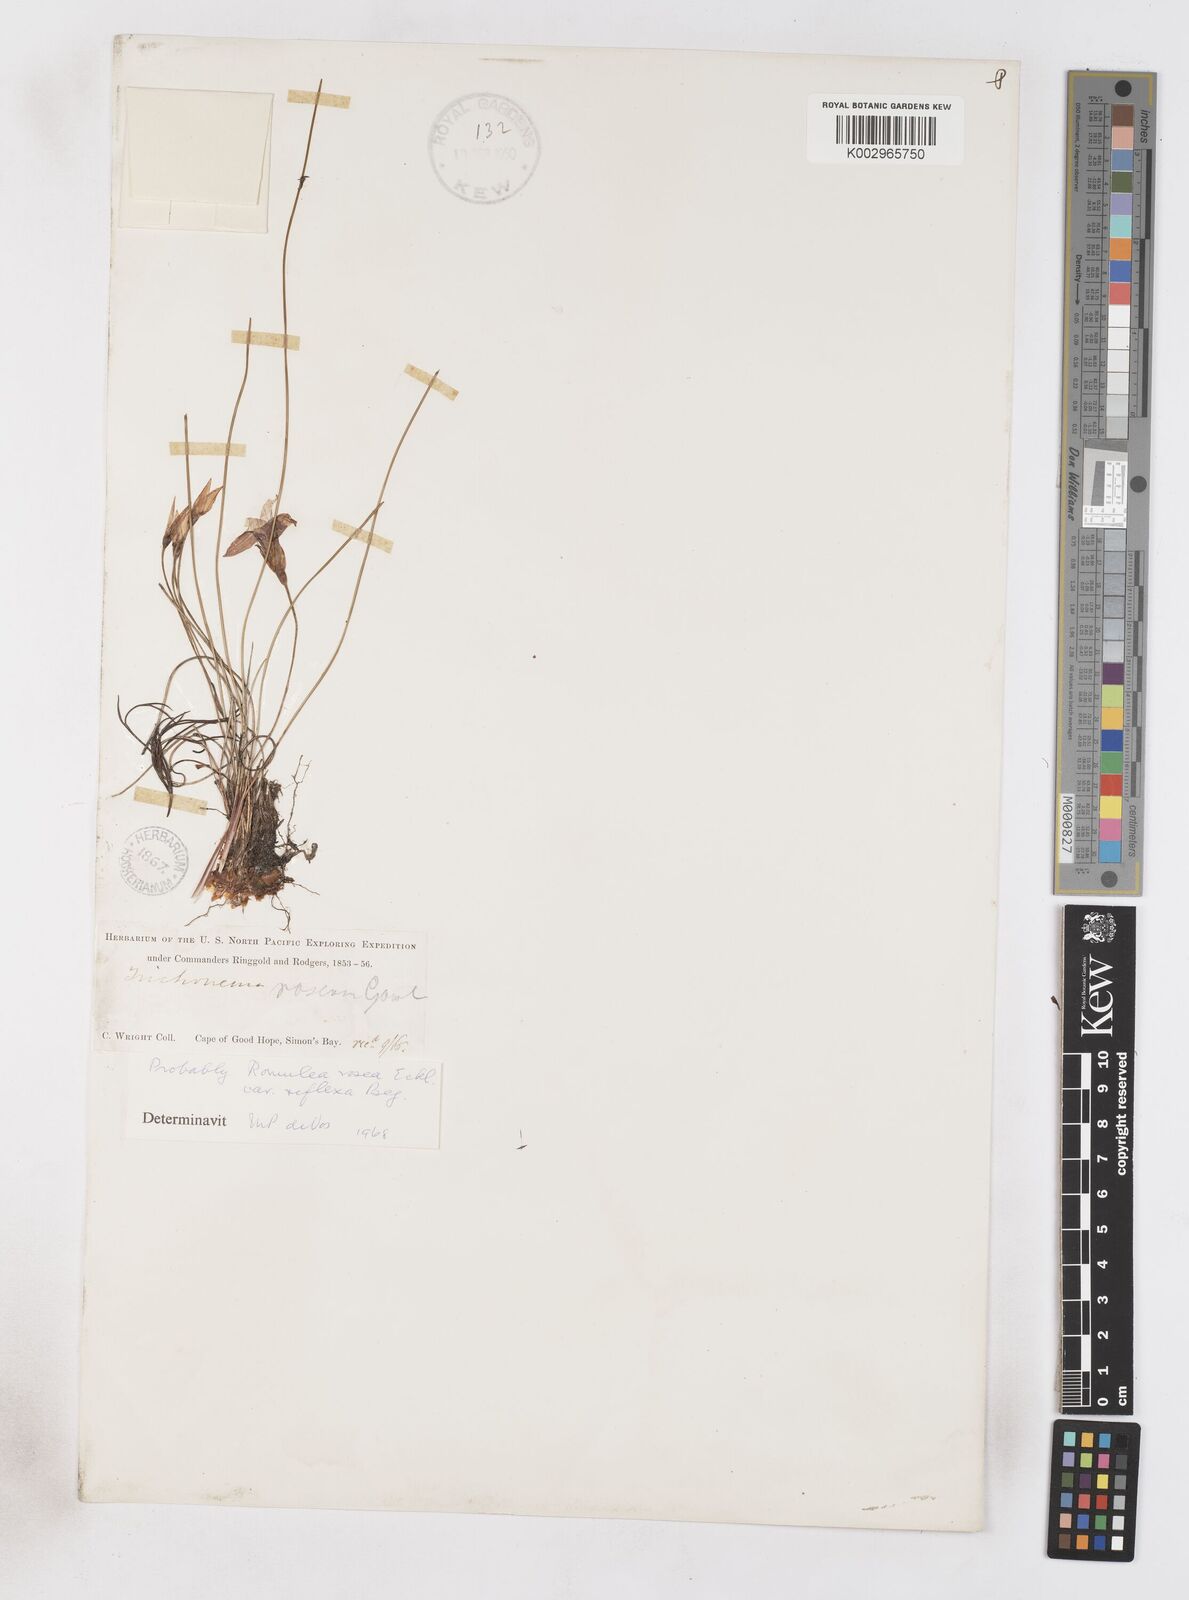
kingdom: Plantae
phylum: Tracheophyta
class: Liliopsida
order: Asparagales
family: Iridaceae
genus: Romulea
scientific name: Romulea rosea
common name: Oniongrass
